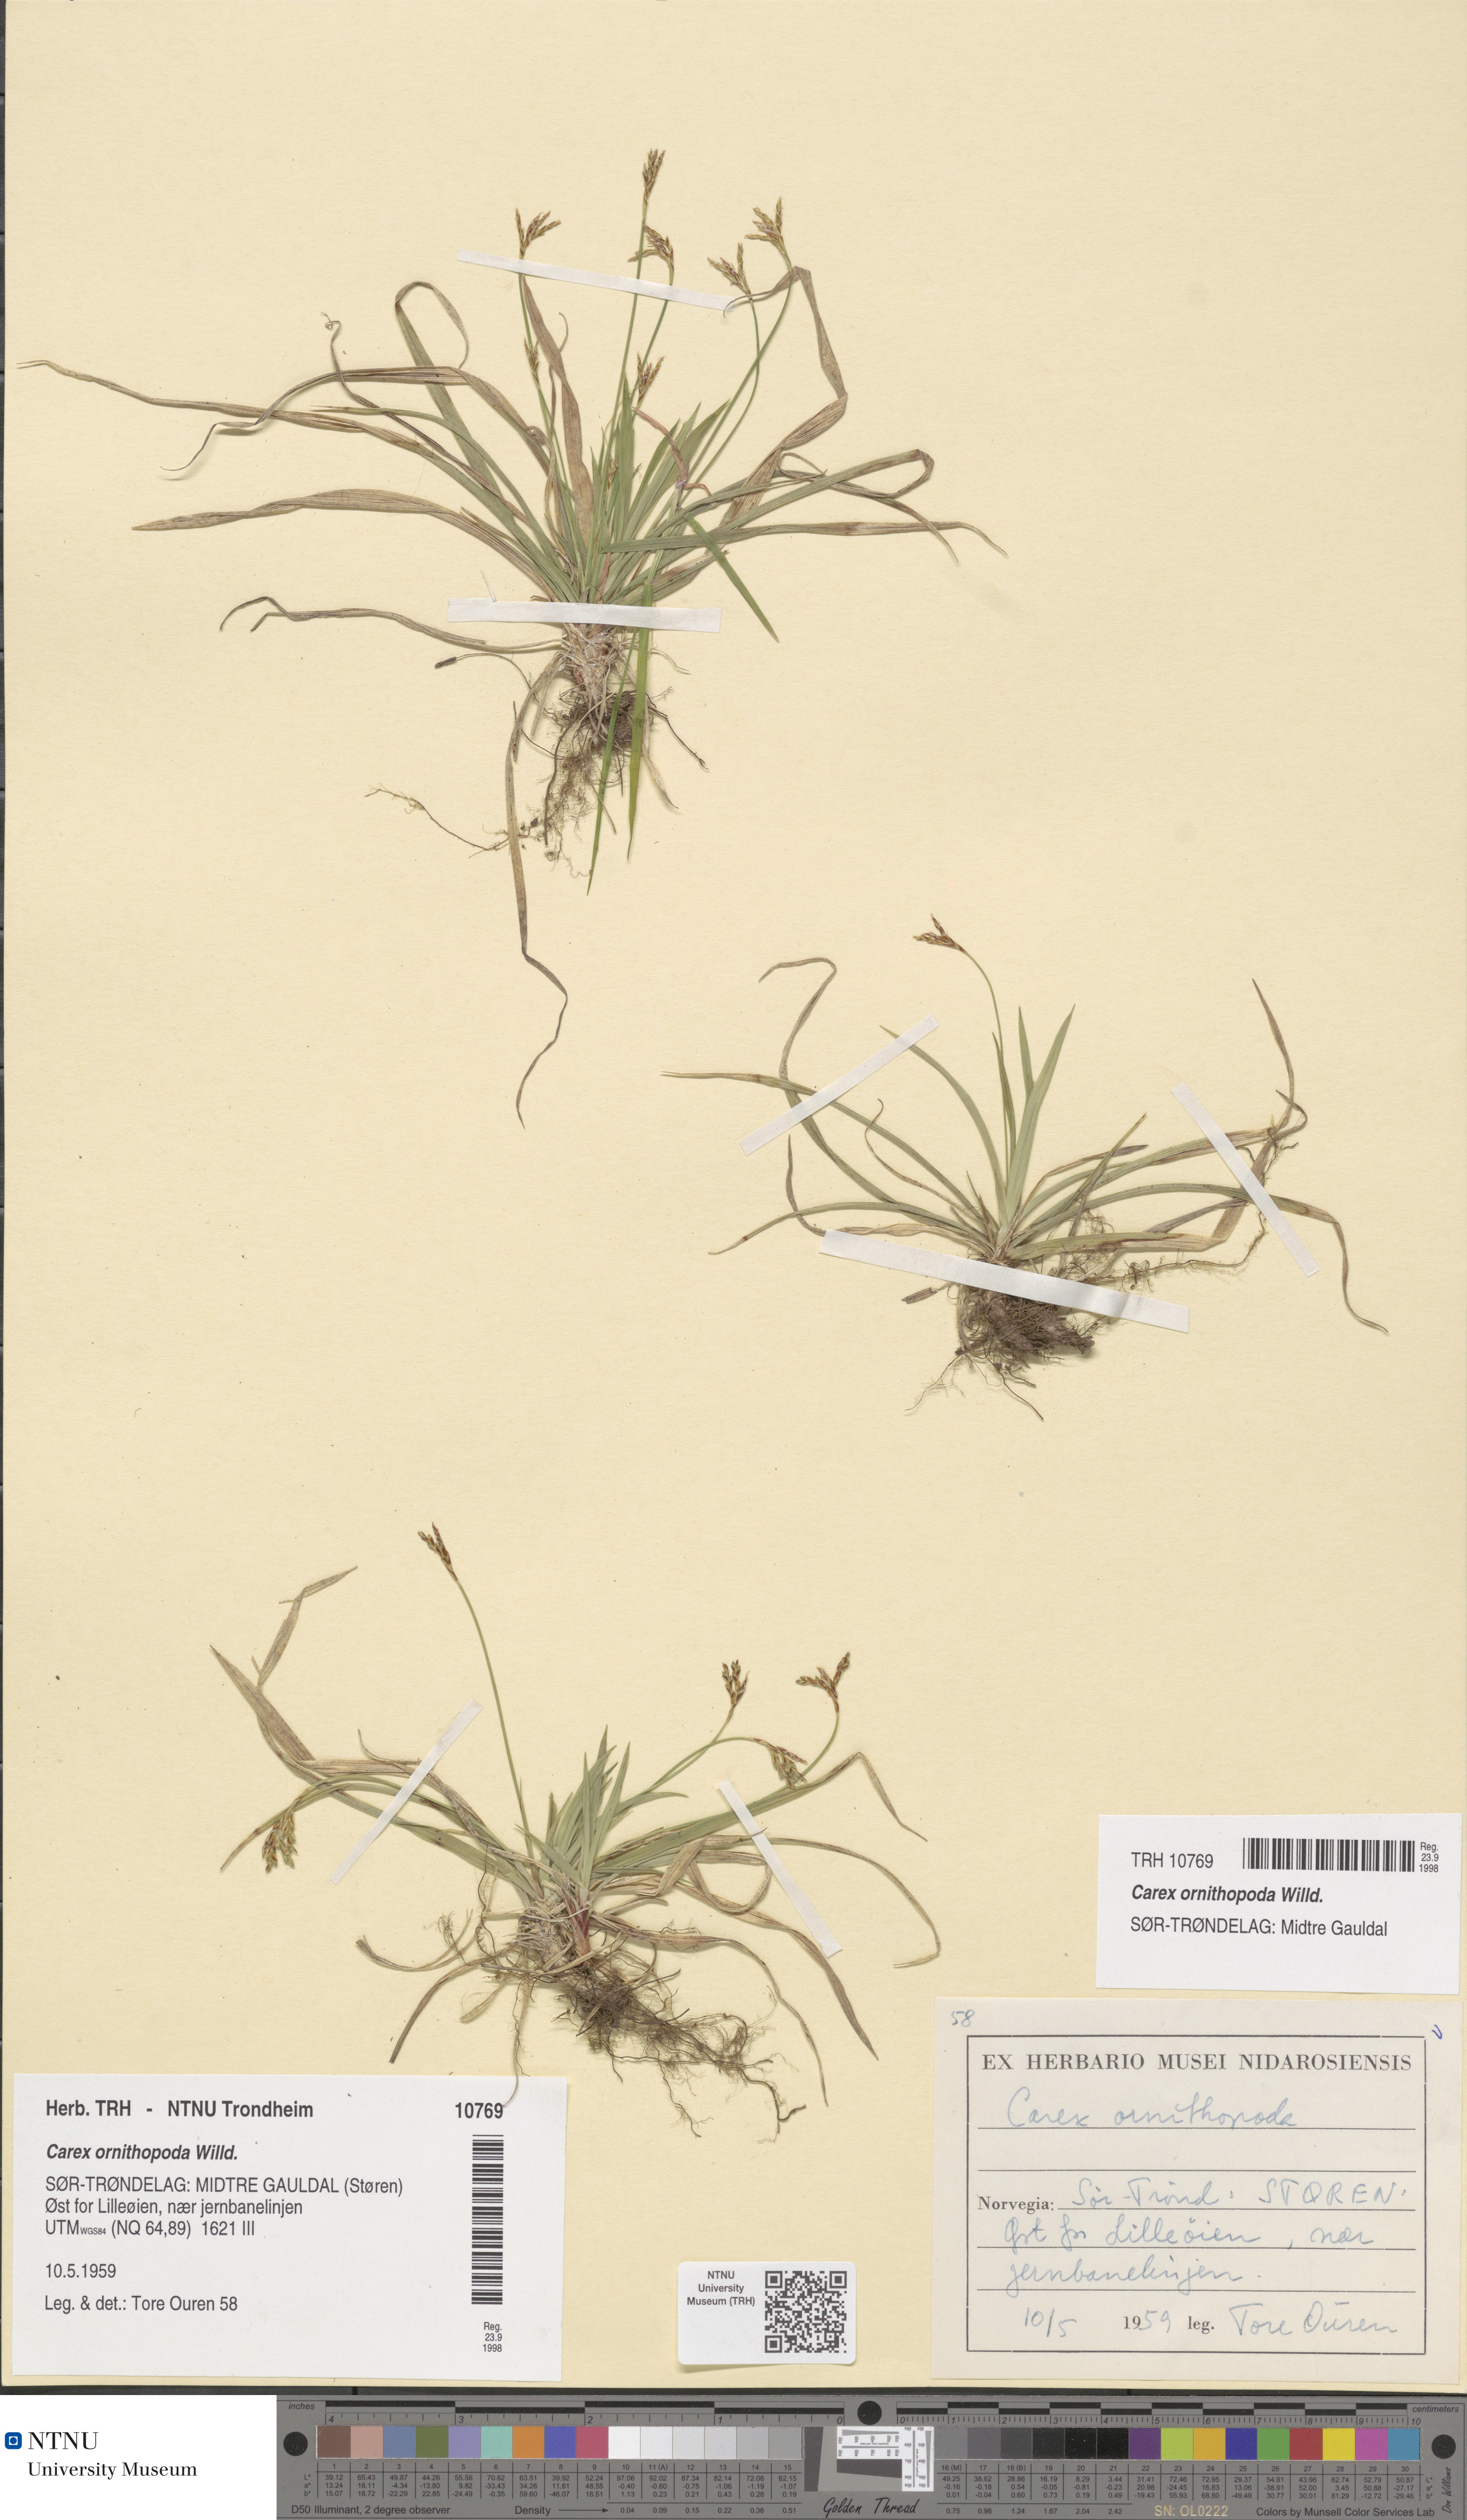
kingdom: Plantae
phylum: Tracheophyta
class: Liliopsida
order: Poales
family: Cyperaceae
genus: Carex
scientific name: Carex ornithopoda
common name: Bird's-foot sedge
